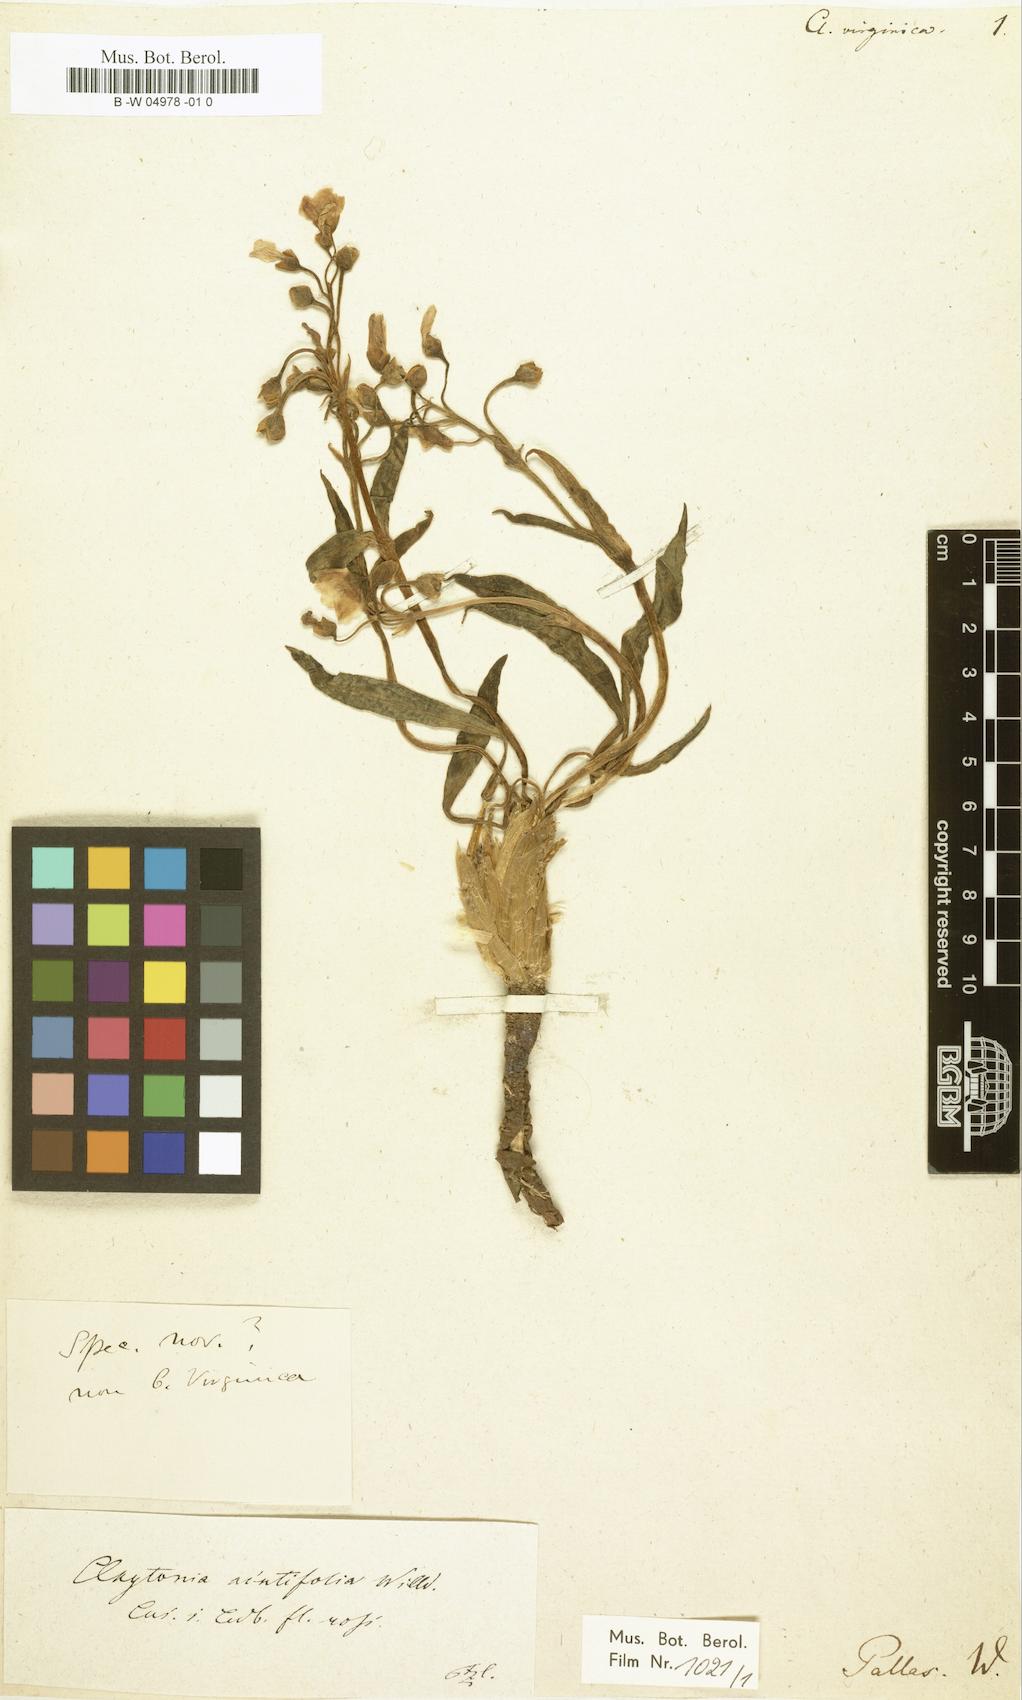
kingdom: Plantae
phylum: Tracheophyta
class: Magnoliopsida
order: Caryophyllales
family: Montiaceae
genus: Claytonia
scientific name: Claytonia virginica
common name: Virginia springbeauty
